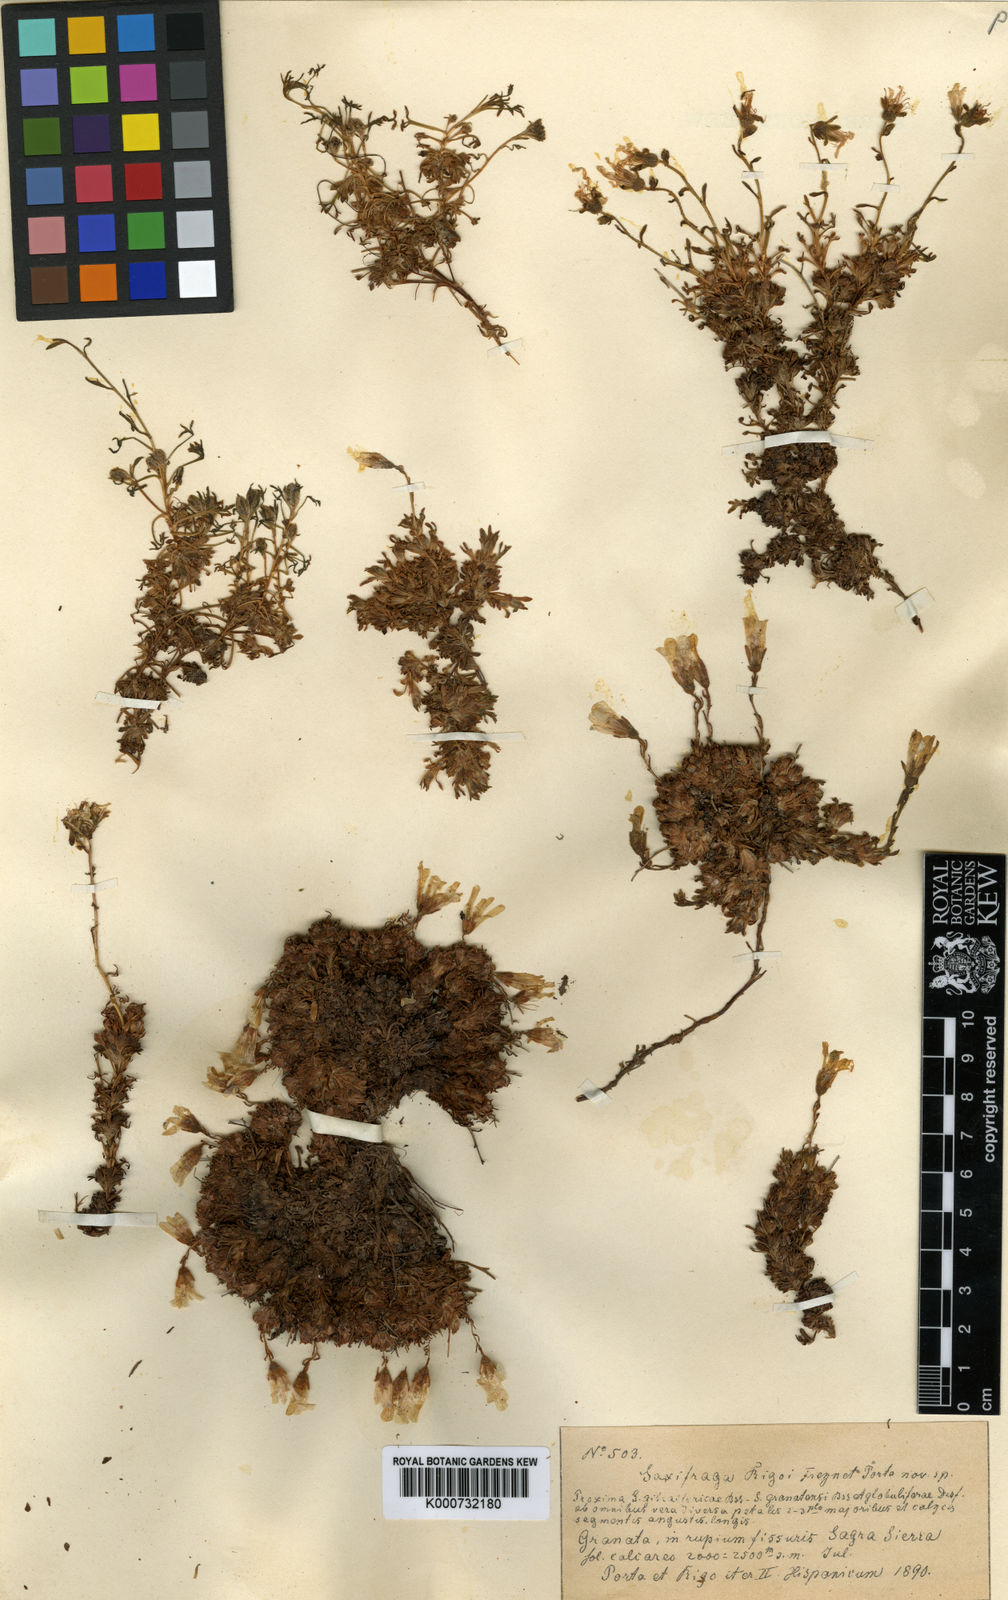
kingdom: Plantae
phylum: Tracheophyta
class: Magnoliopsida
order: Saxifragales
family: Saxifragaceae
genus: Saxifraga
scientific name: Saxifraga rigoi
